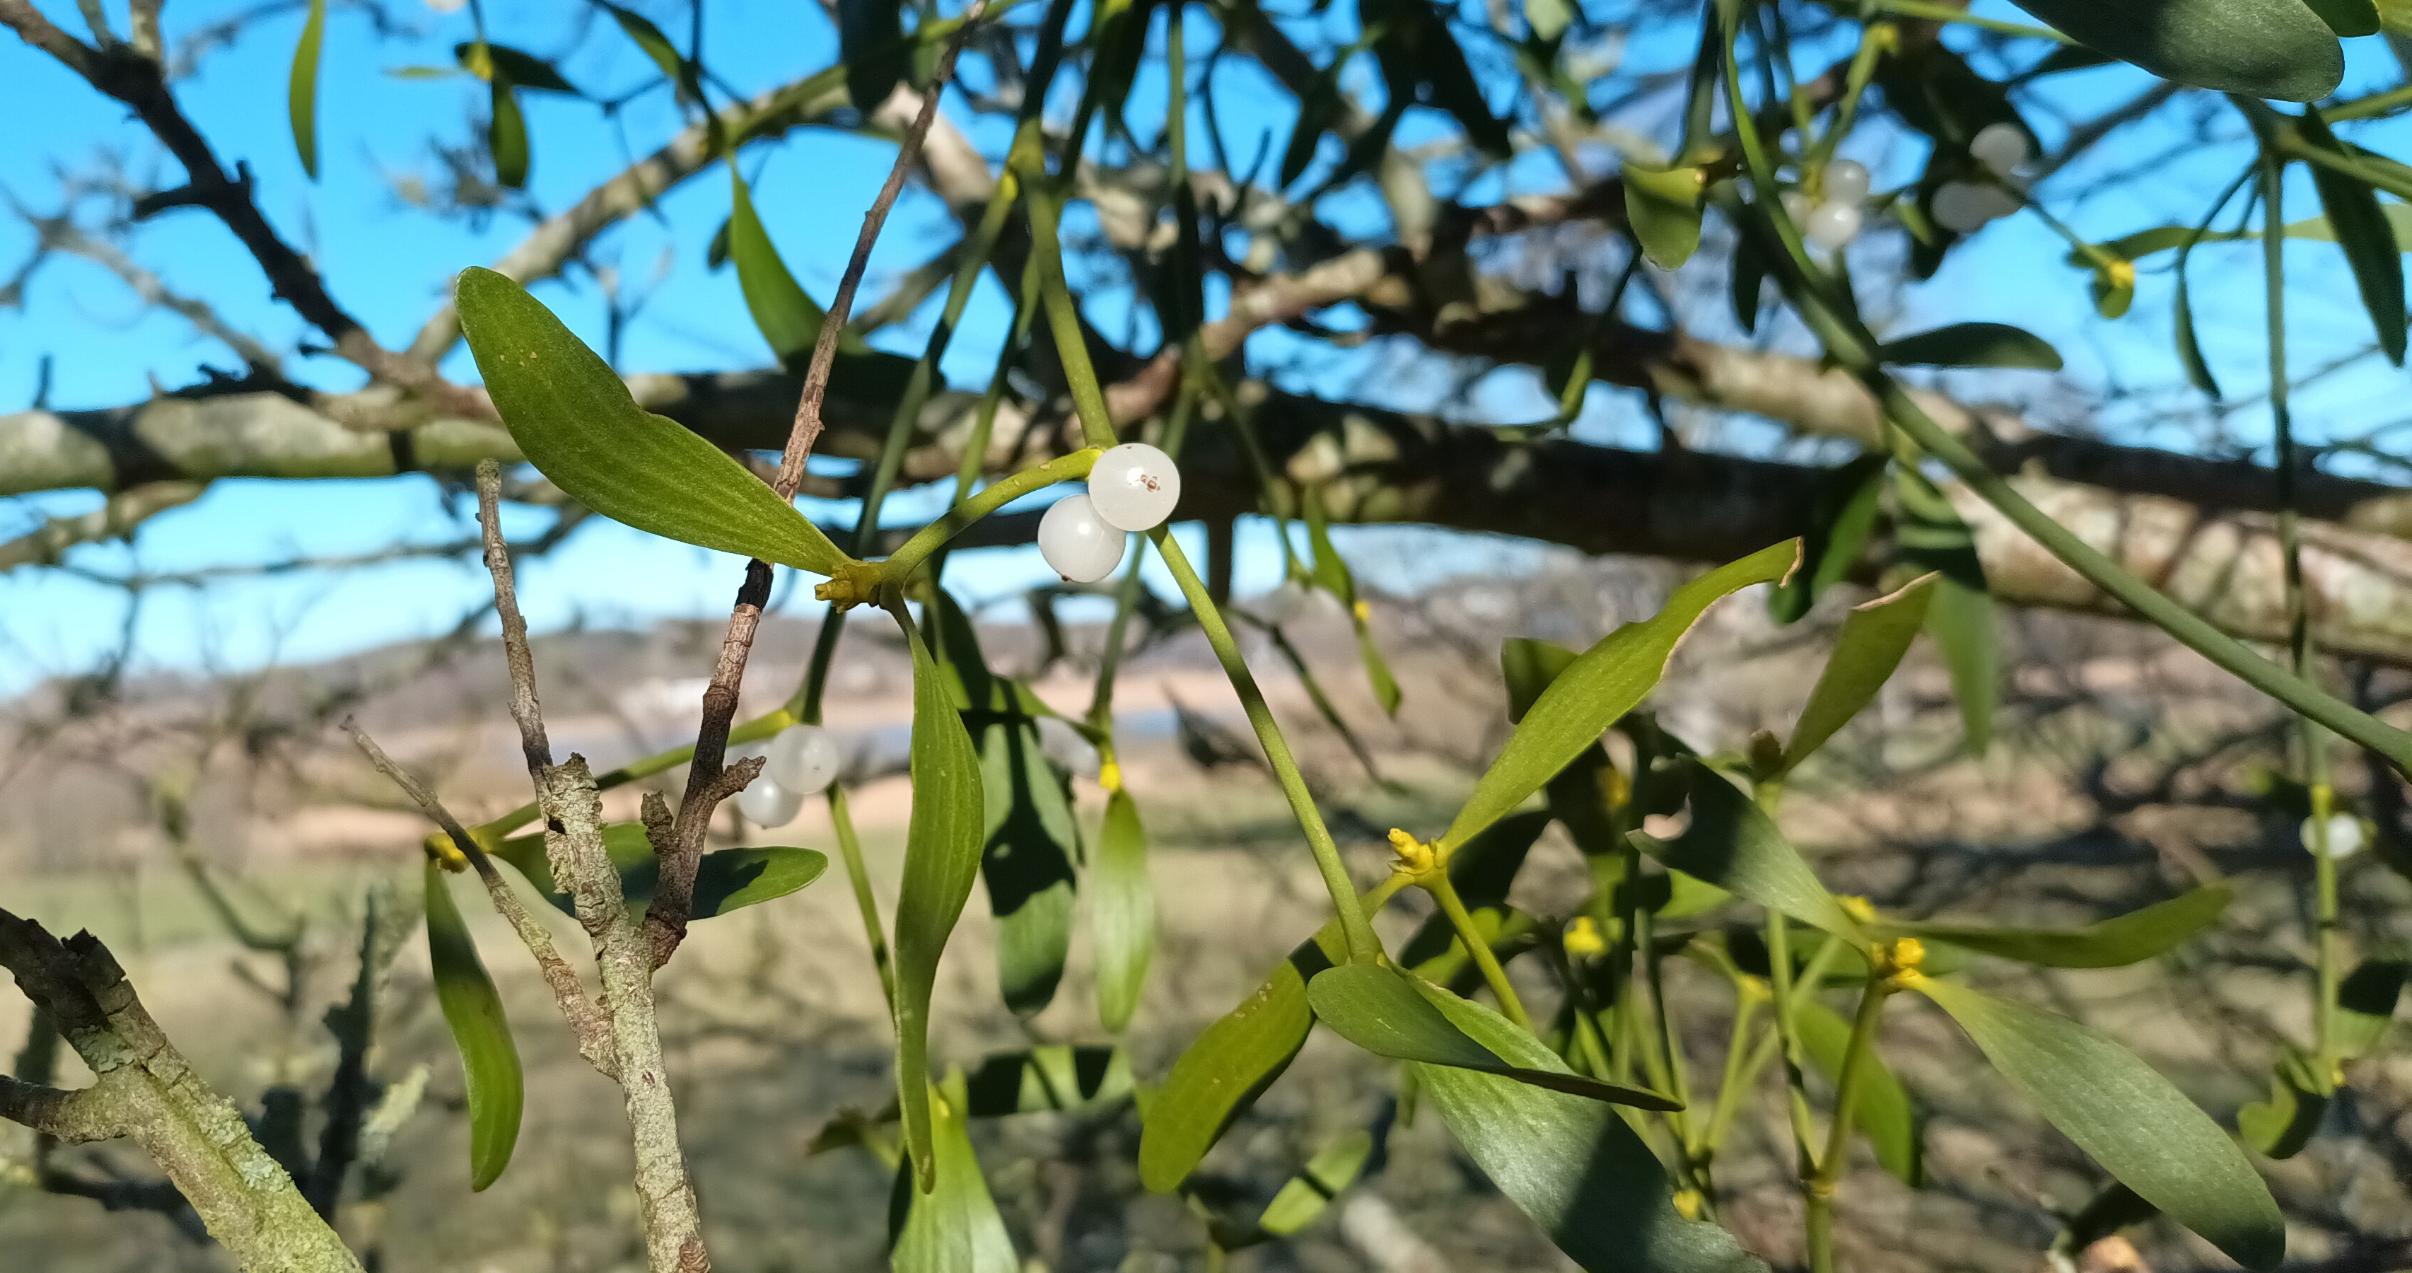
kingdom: Plantae
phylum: Tracheophyta
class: Magnoliopsida
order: Santalales
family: Viscaceae
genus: Viscum
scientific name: Viscum album
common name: Mistelten
